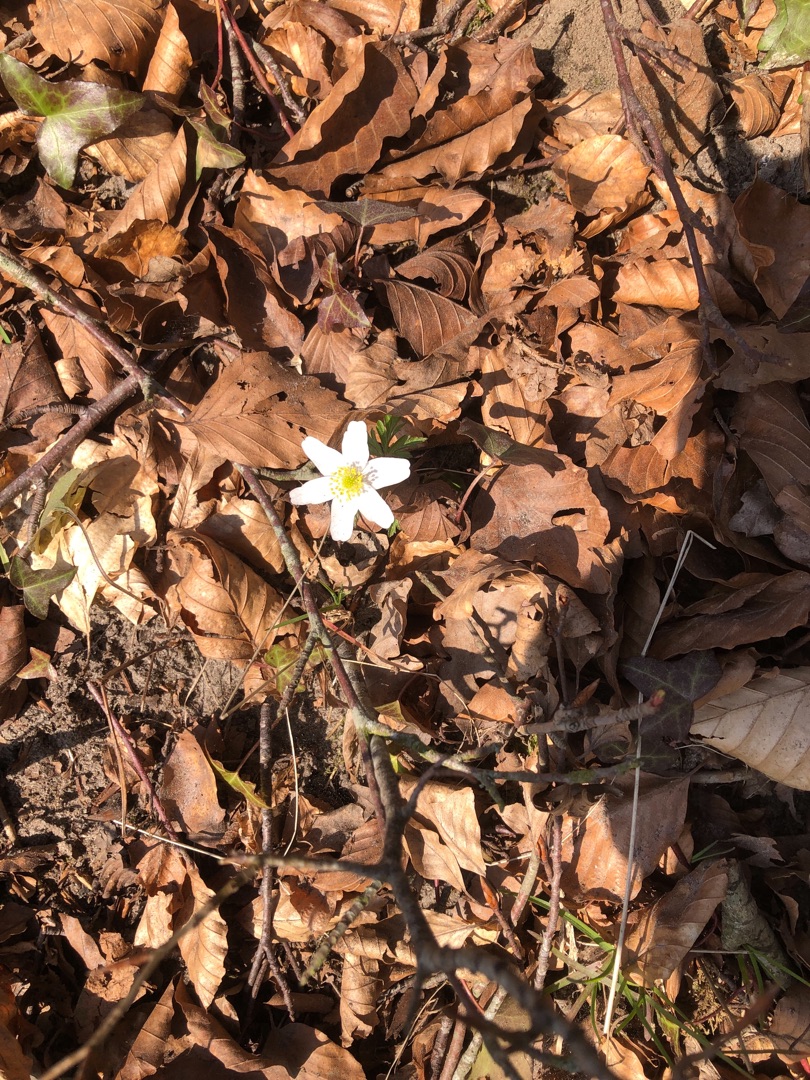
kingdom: Plantae
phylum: Tracheophyta
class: Magnoliopsida
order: Ranunculales
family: Ranunculaceae
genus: Anemone
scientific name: Anemone nemorosa
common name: Hvid anemone
